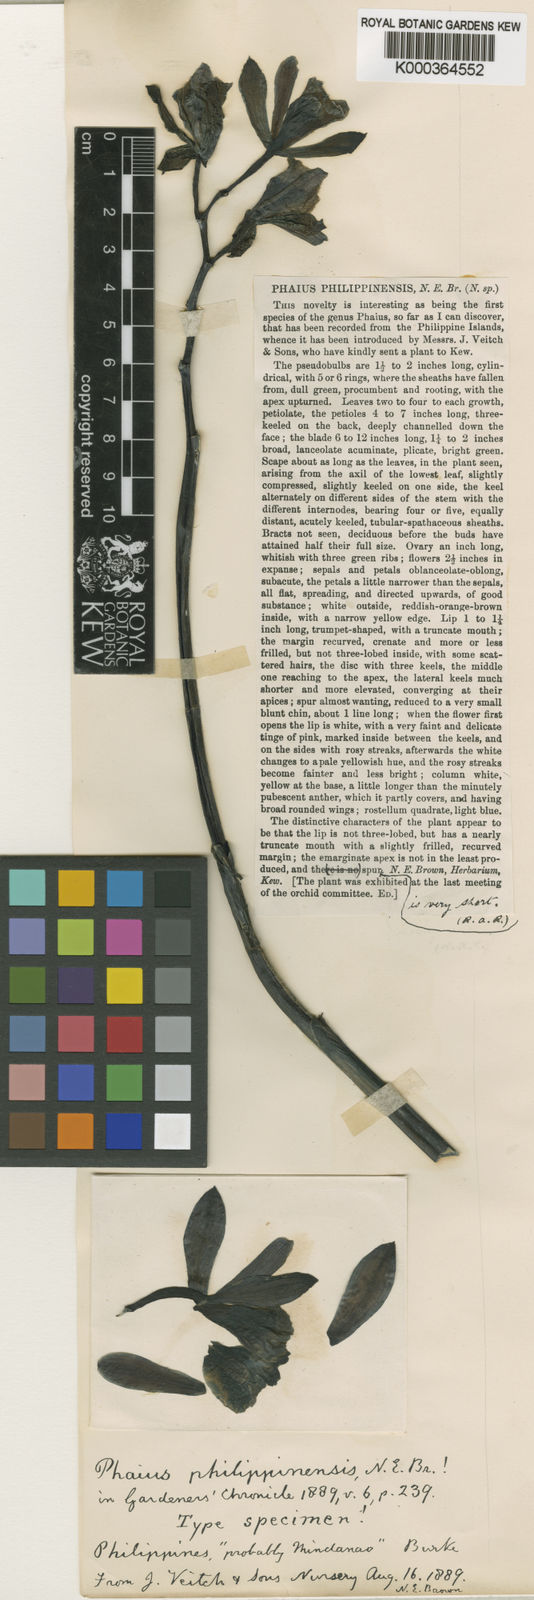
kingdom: Plantae
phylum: Tracheophyta
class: Liliopsida
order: Asparagales
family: Orchidaceae
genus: Calanthe
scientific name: Calanthe philippinensis
